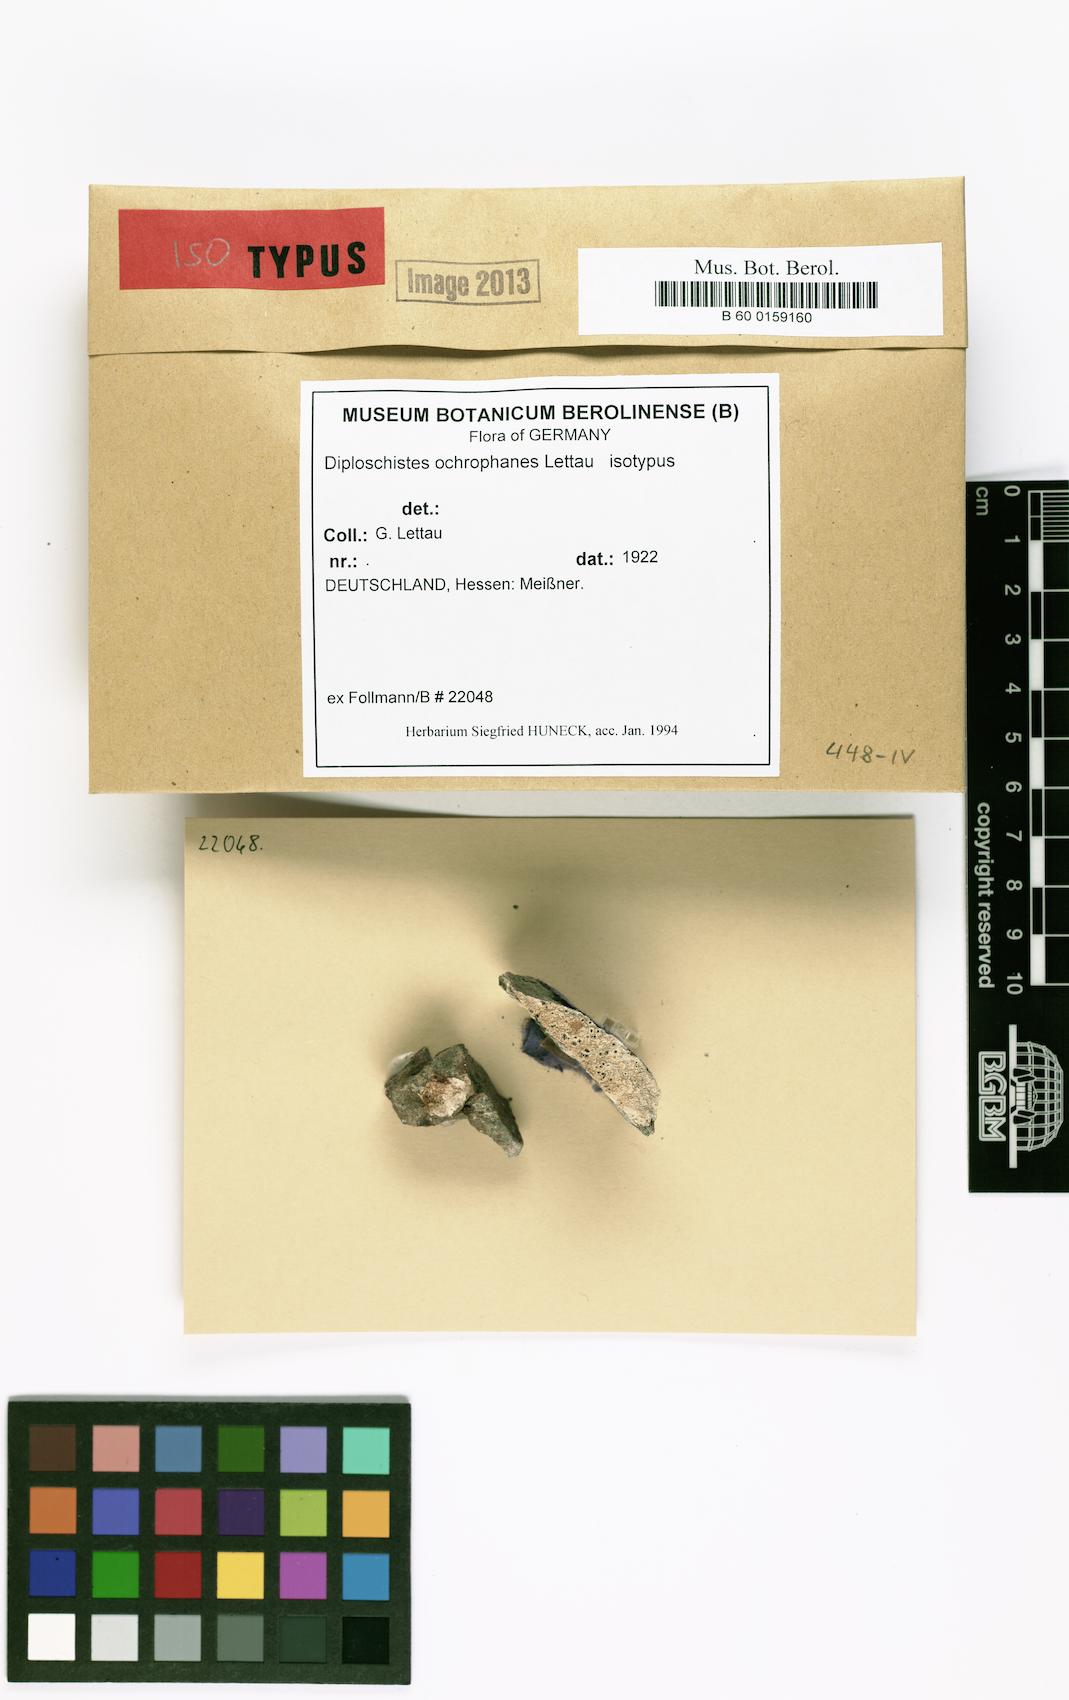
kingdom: Fungi
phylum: Ascomycota
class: Lecanoromycetes
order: Ostropales
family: Graphidaceae
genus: Diploschistes
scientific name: Diploschistes gypsaceus
